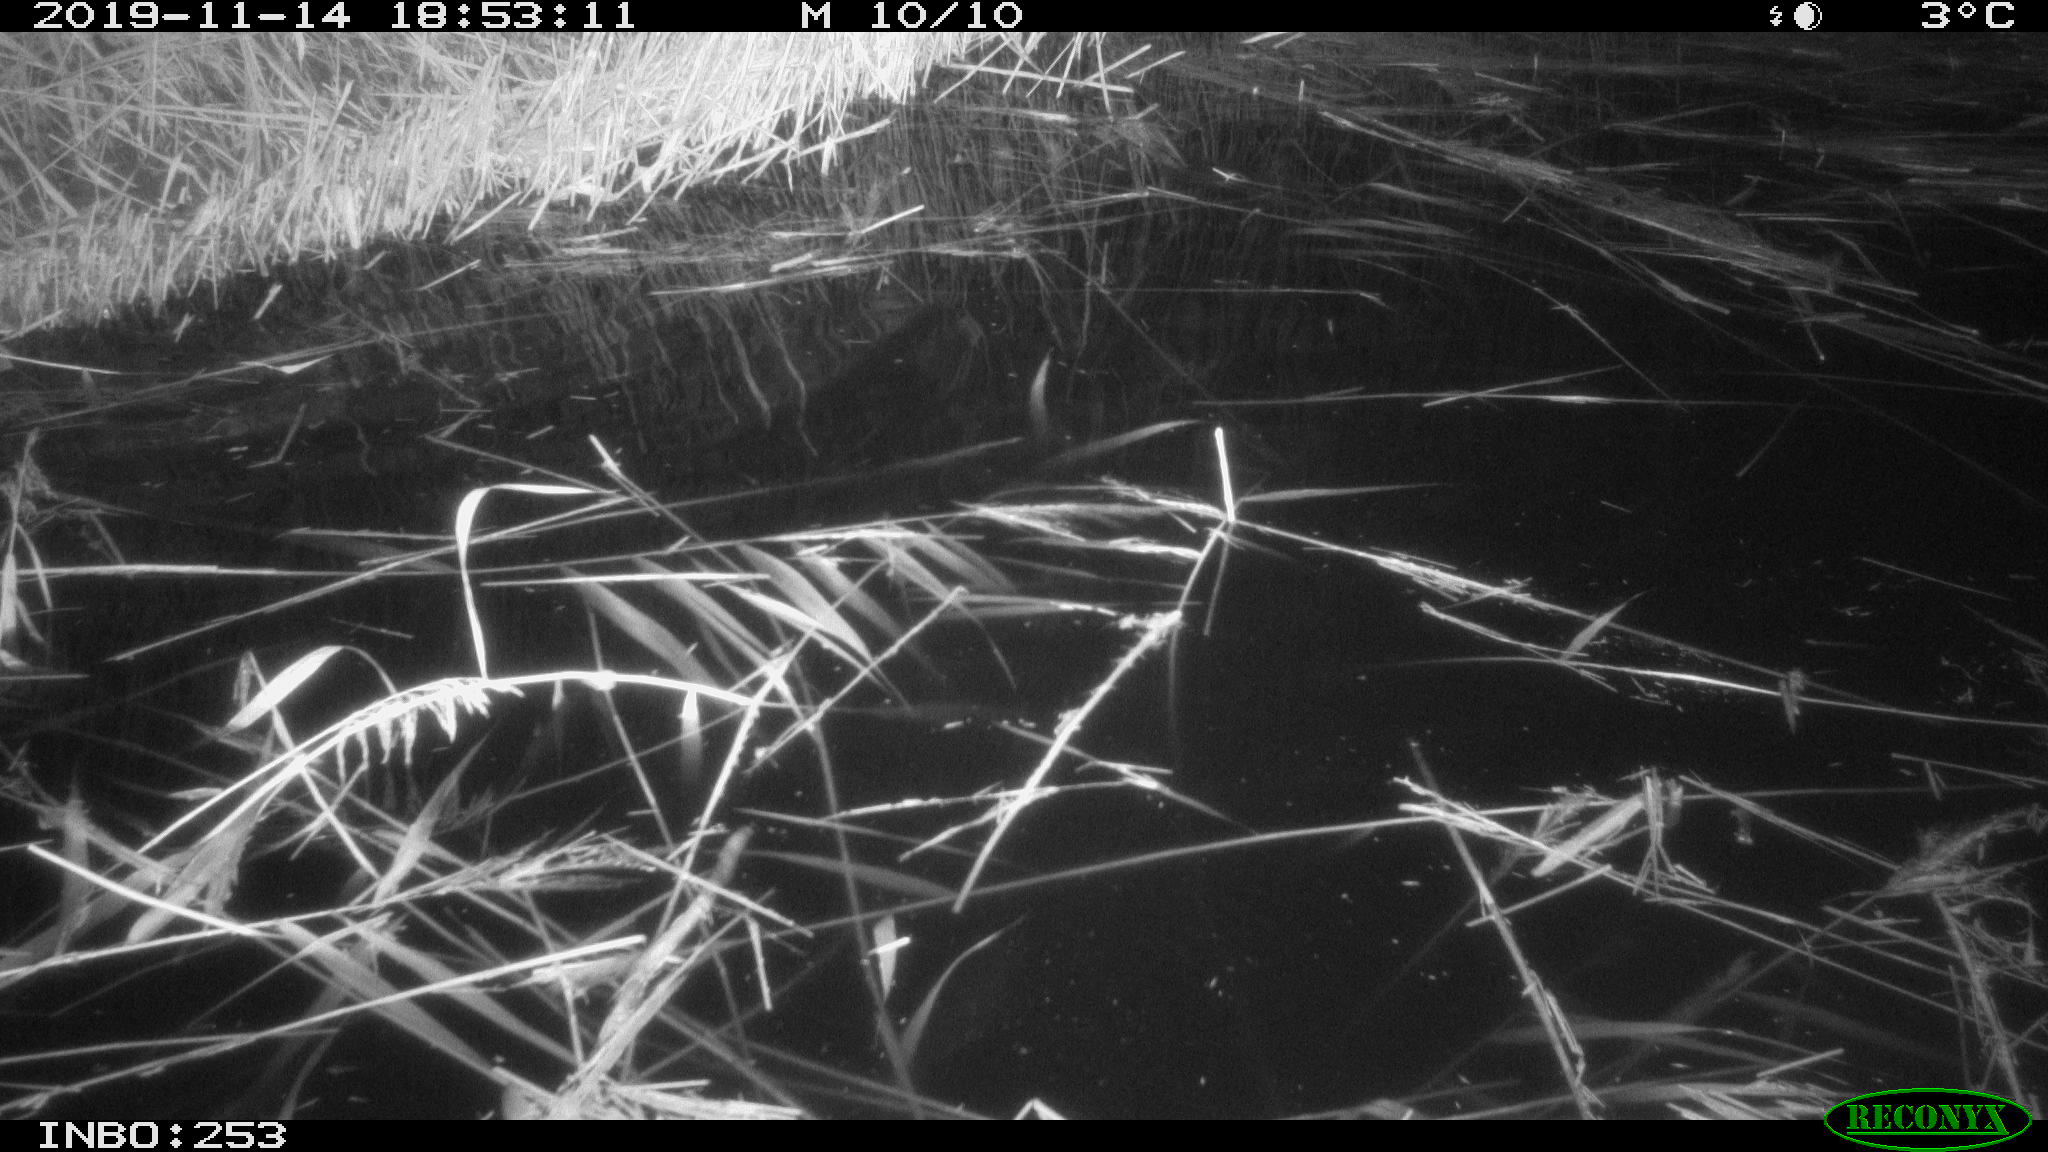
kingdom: Animalia
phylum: Chordata
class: Mammalia
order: Rodentia
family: Muridae
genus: Rattus
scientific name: Rattus norvegicus
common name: Brown rat
